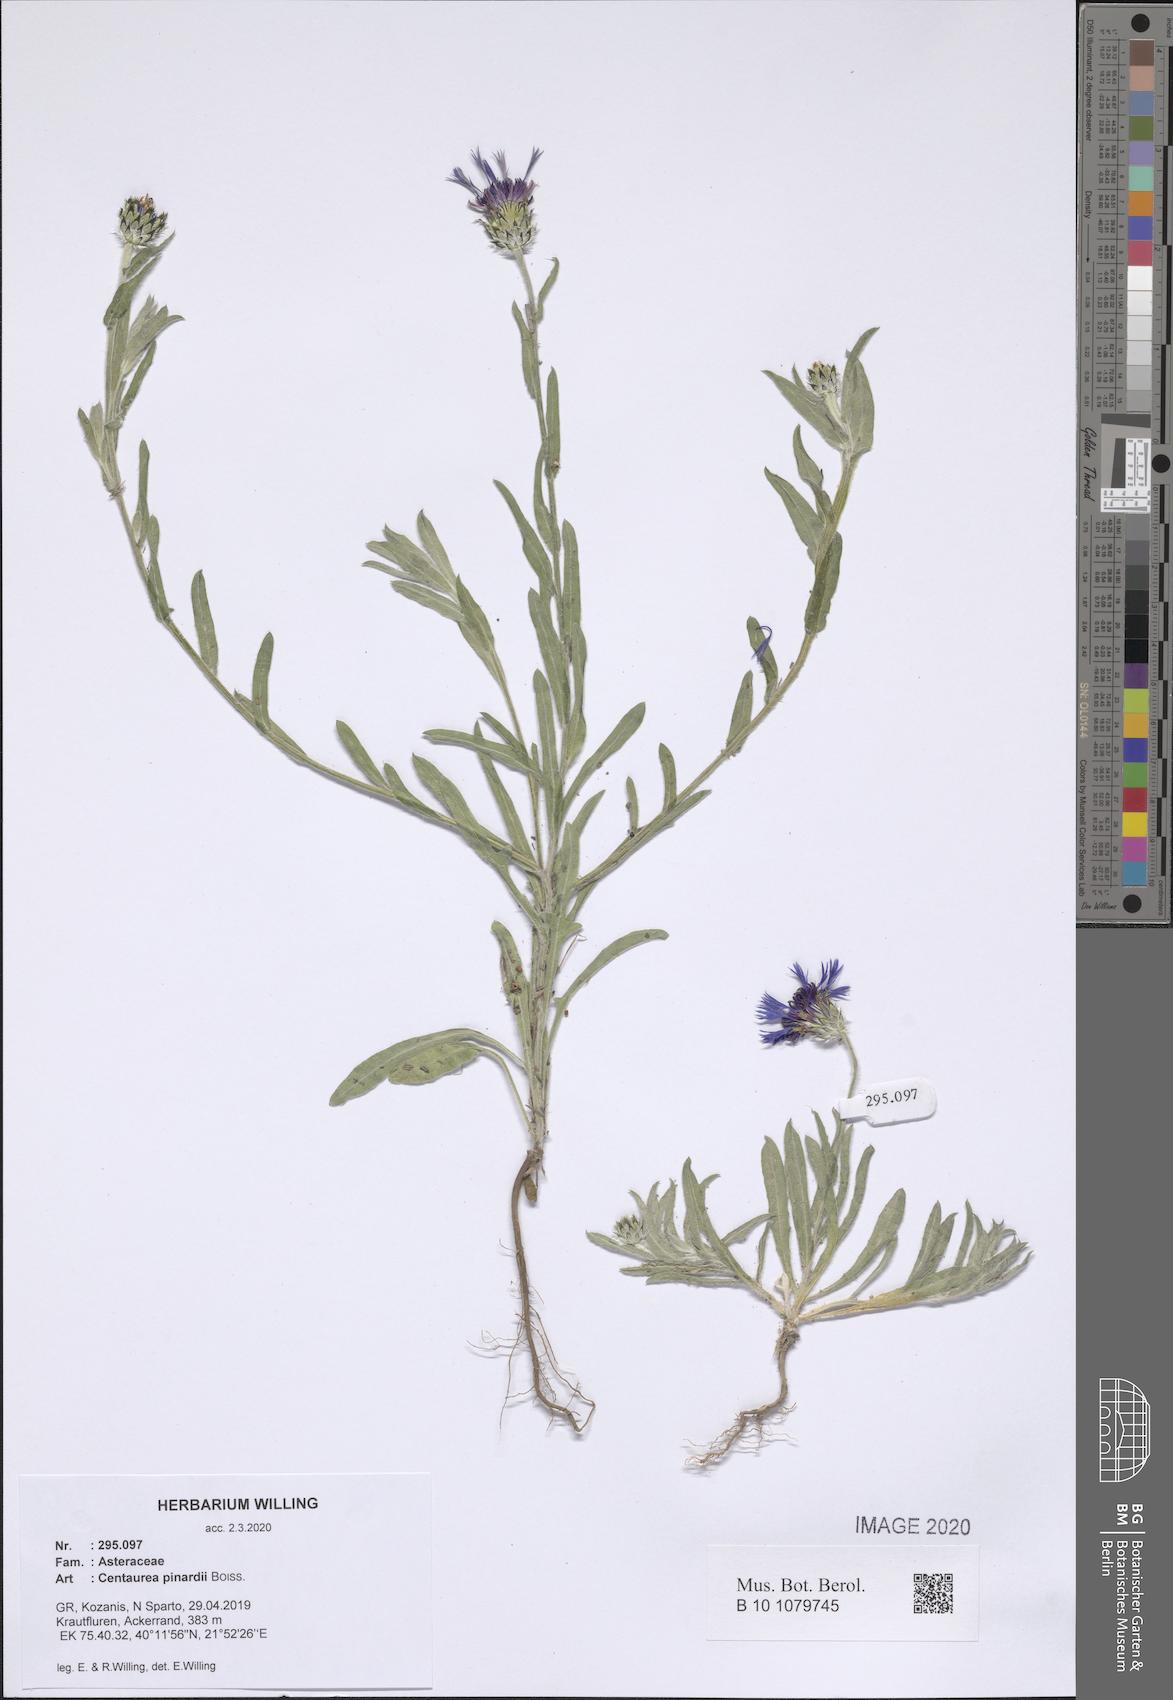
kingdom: Plantae
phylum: Tracheophyta
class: Magnoliopsida
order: Asterales
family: Asteraceae
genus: Centaurea
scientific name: Centaurea pinardii
